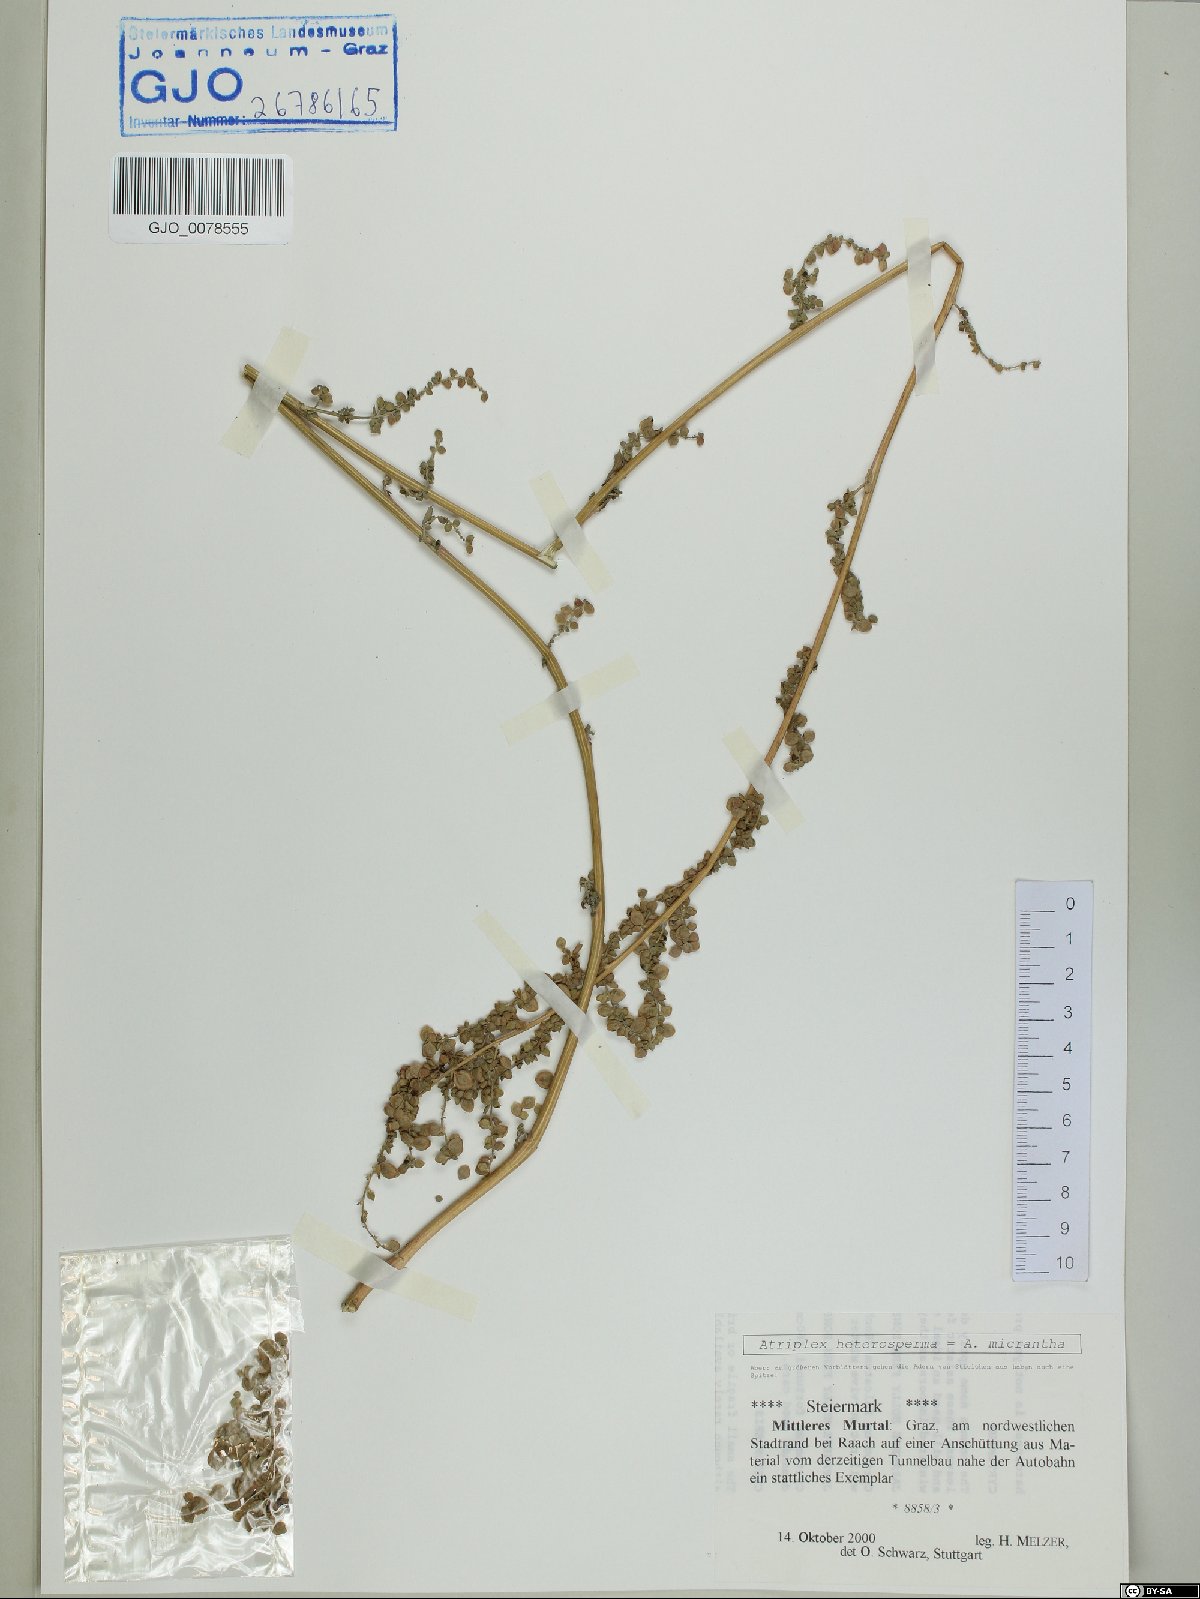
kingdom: Plantae
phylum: Tracheophyta
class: Magnoliopsida
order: Caryophyllales
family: Amaranthaceae
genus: Atriplex
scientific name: Atriplex micrantha
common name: Twoscale saltbush
